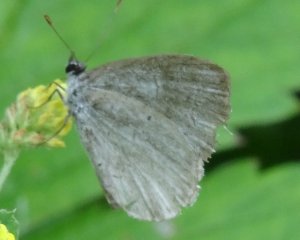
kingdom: Animalia
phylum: Arthropoda
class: Insecta
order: Lepidoptera
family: Lycaenidae
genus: Celastrina
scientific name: Celastrina serotina
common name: Cherry Gall Azure
